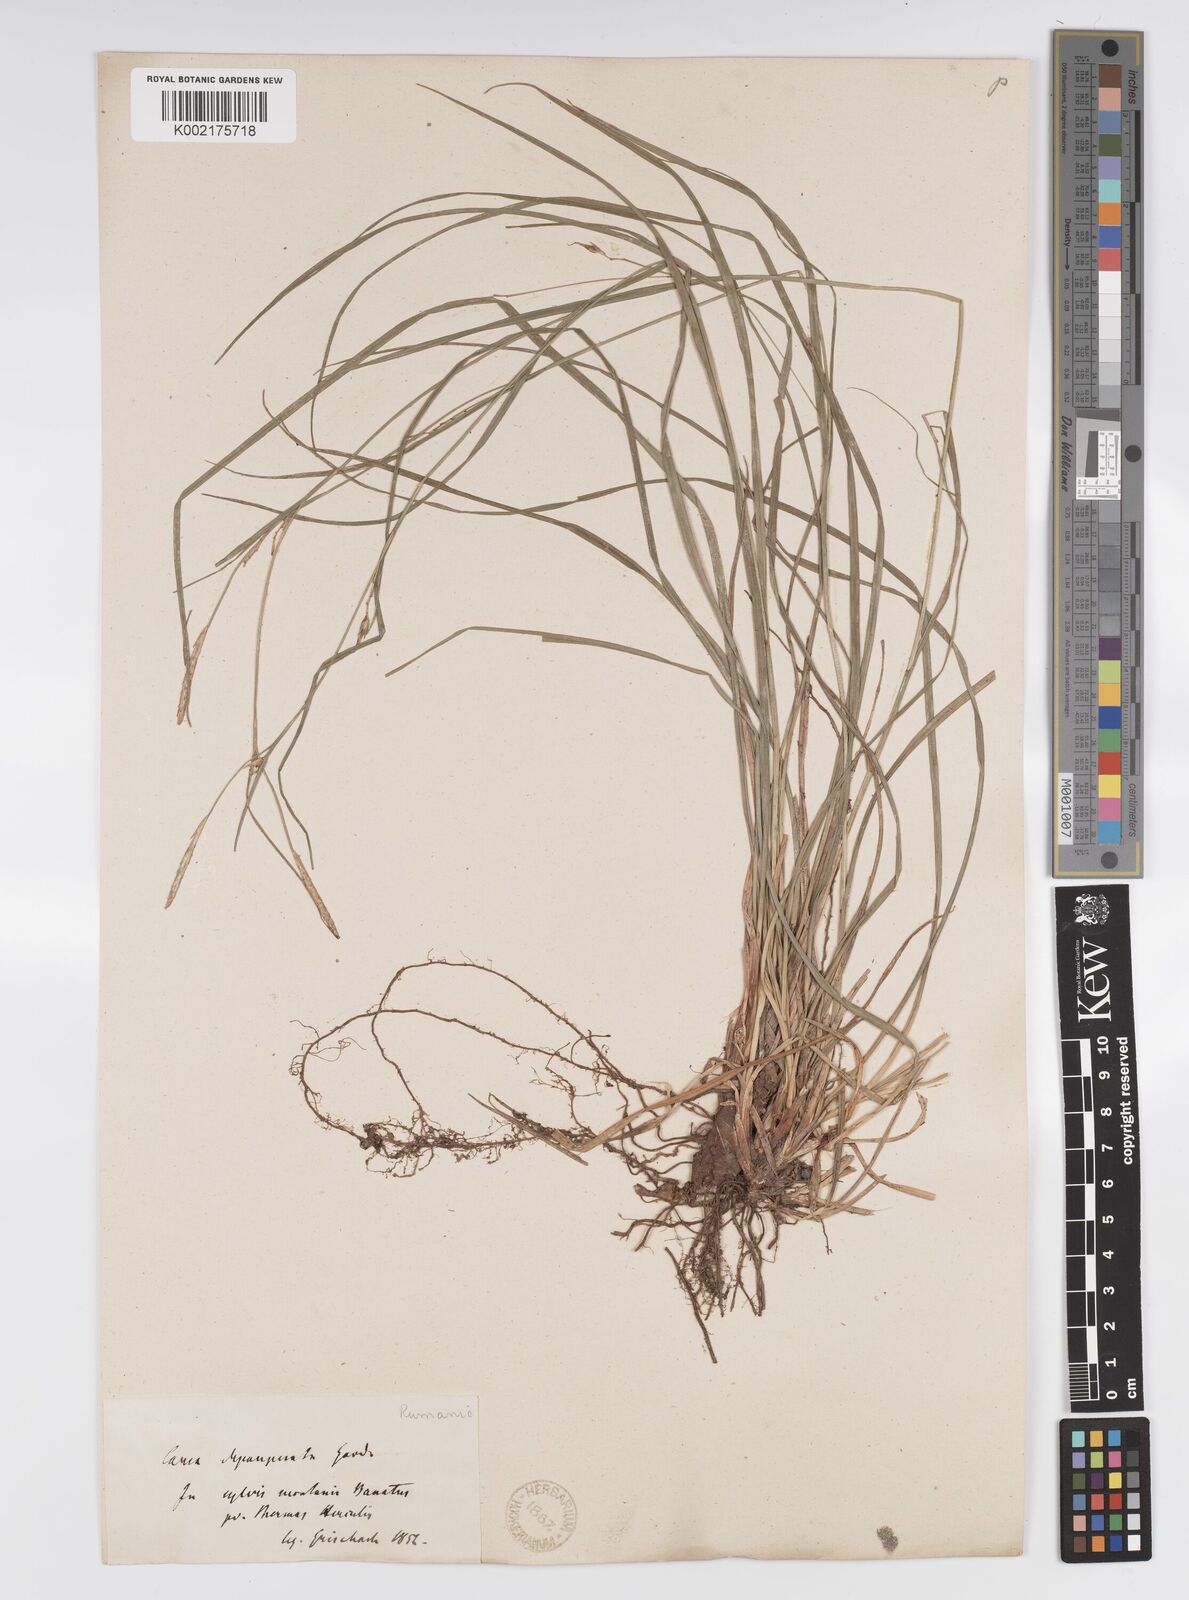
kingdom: Plantae
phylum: Tracheophyta
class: Liliopsida
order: Poales
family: Cyperaceae
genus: Carex
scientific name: Carex
